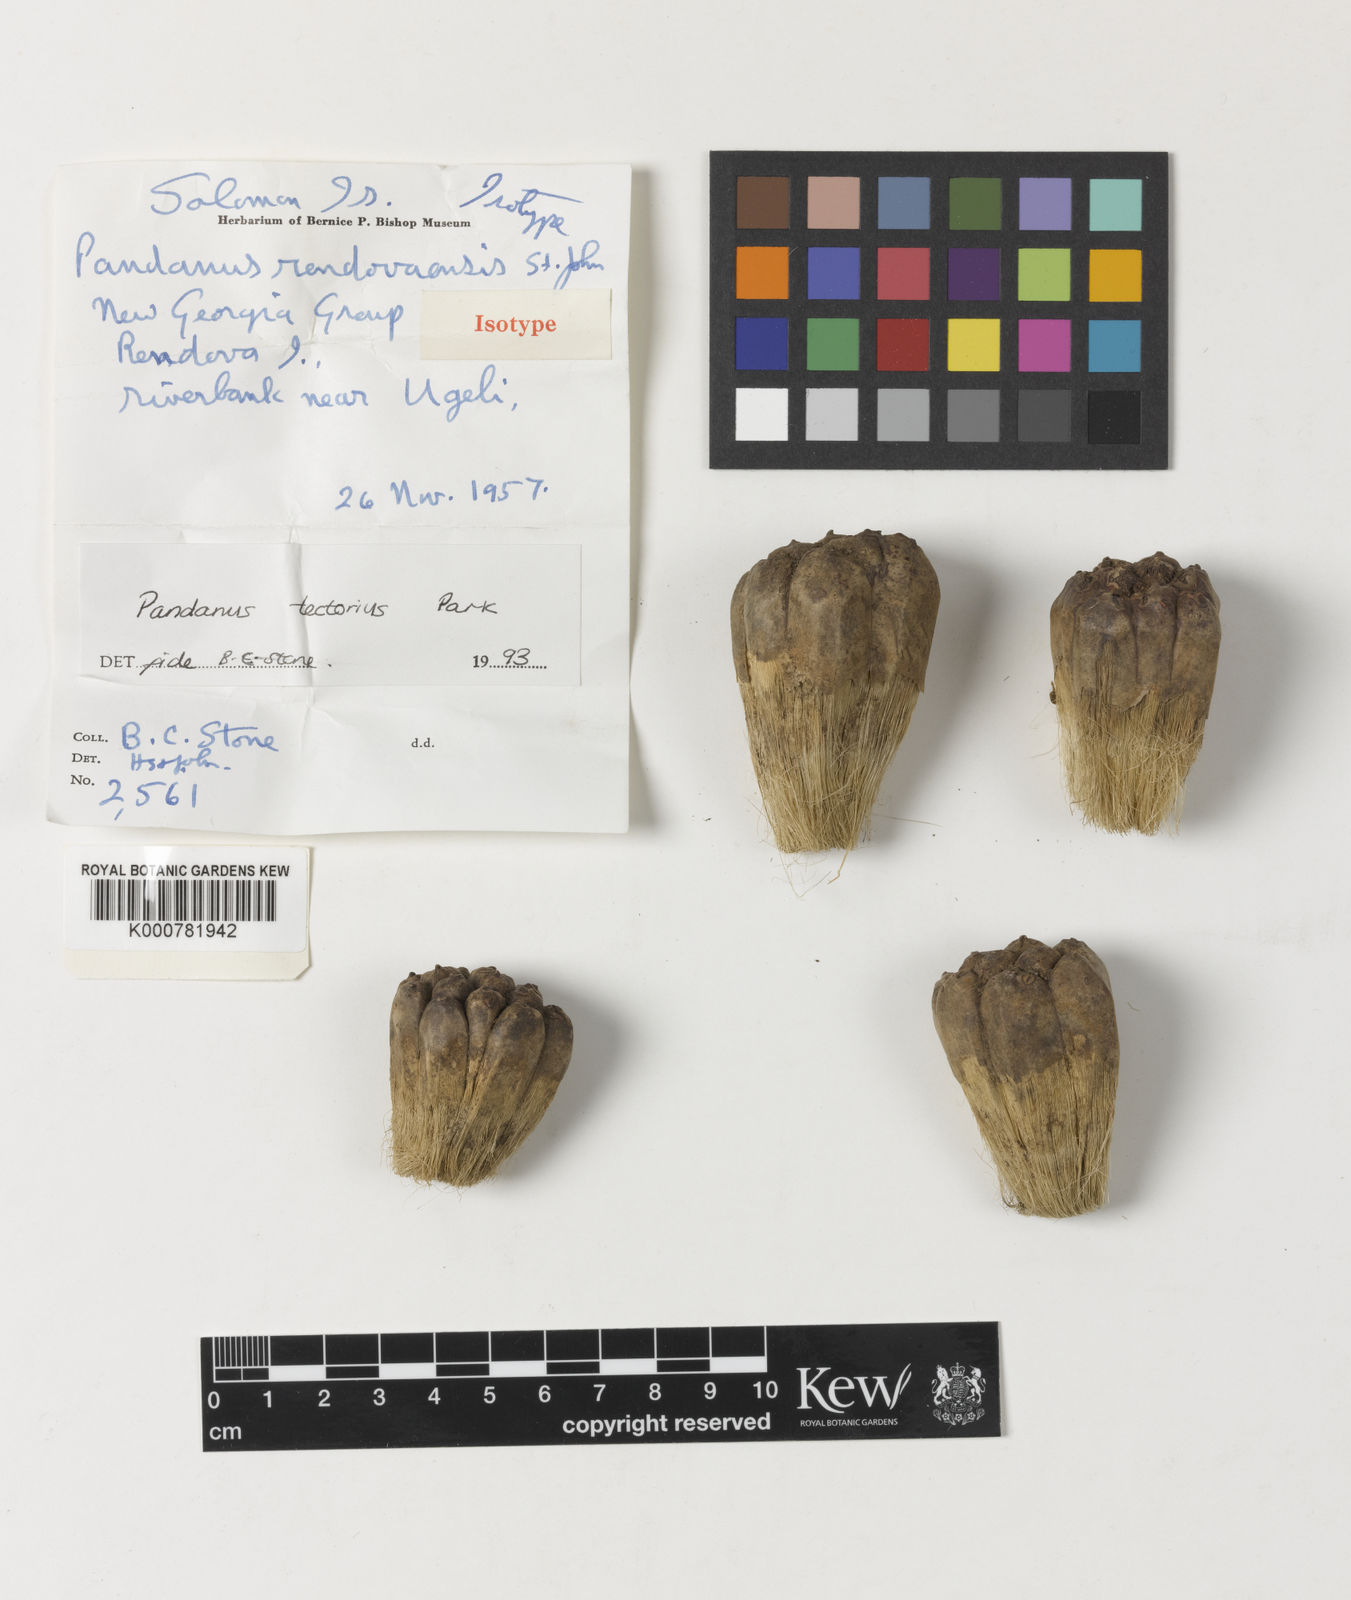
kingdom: Plantae
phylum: Tracheophyta
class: Liliopsida
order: Pandanales
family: Pandanaceae
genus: Pandanus
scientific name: Pandanus
